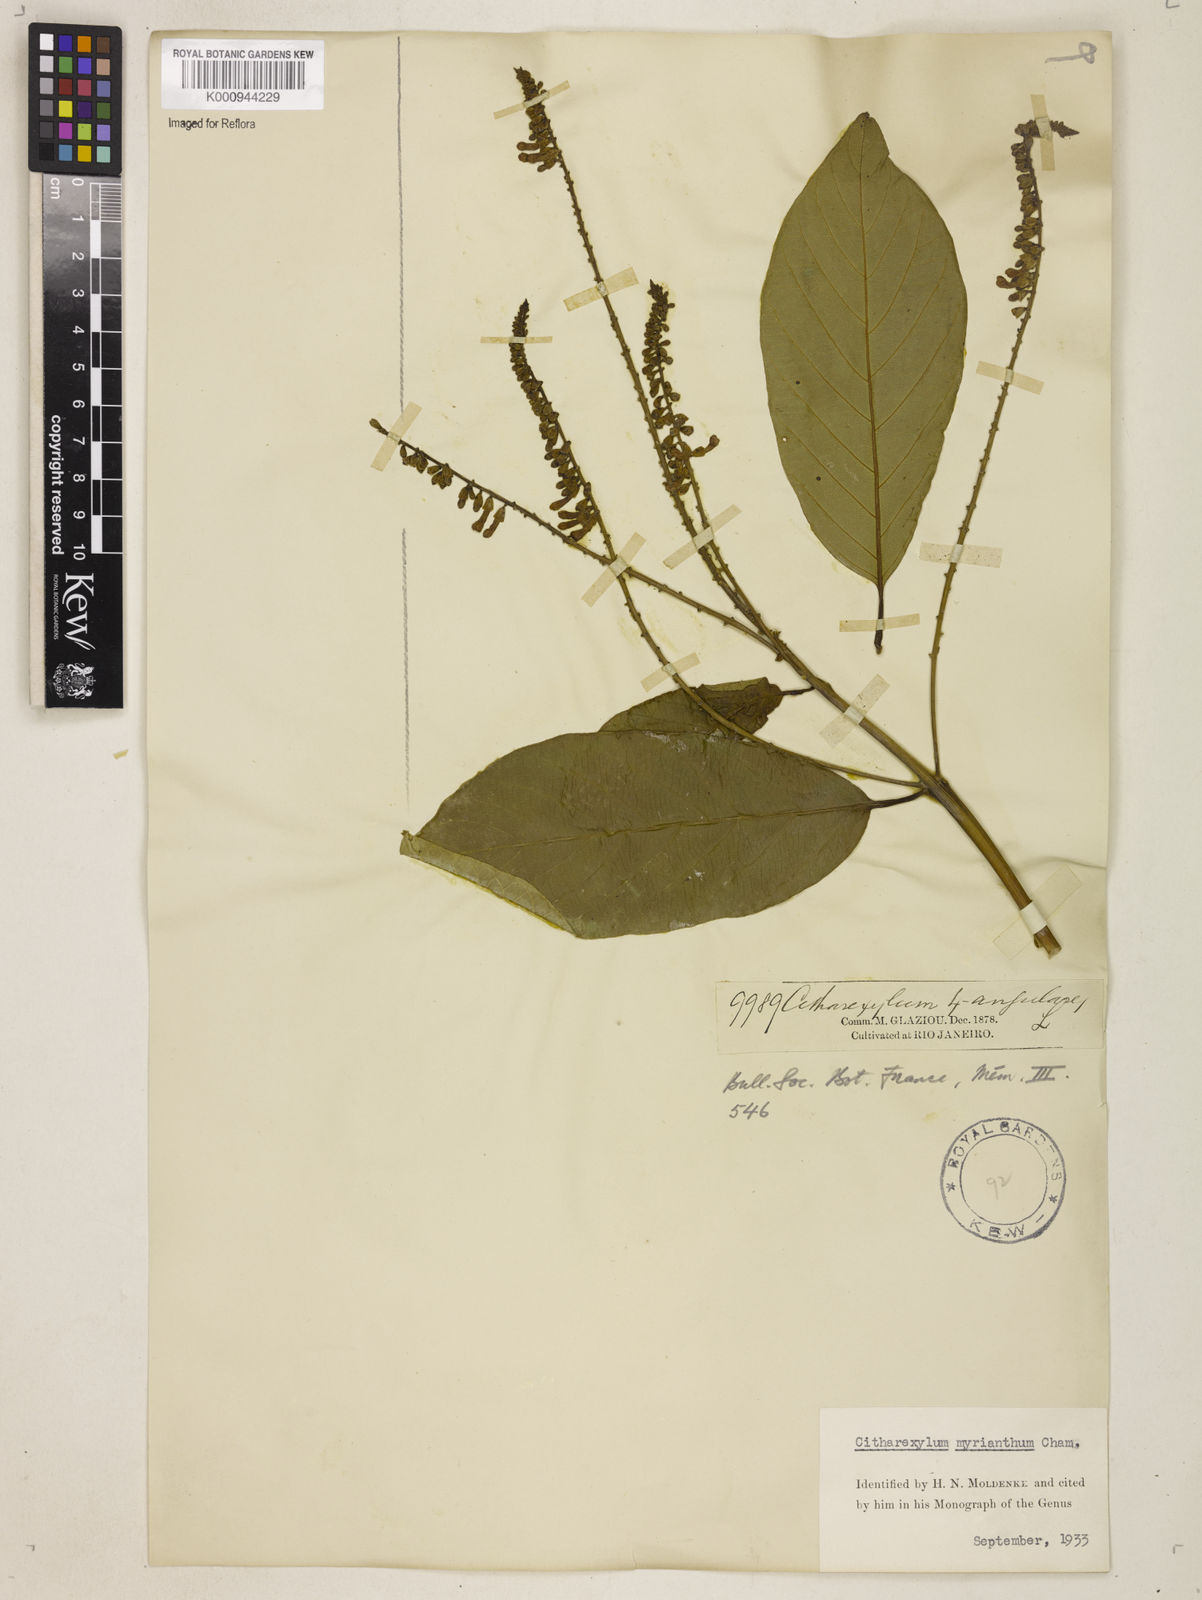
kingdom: Plantae
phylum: Tracheophyta
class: Magnoliopsida
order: Lamiales
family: Verbenaceae
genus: Citharexylum
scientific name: Citharexylum myrianthum
